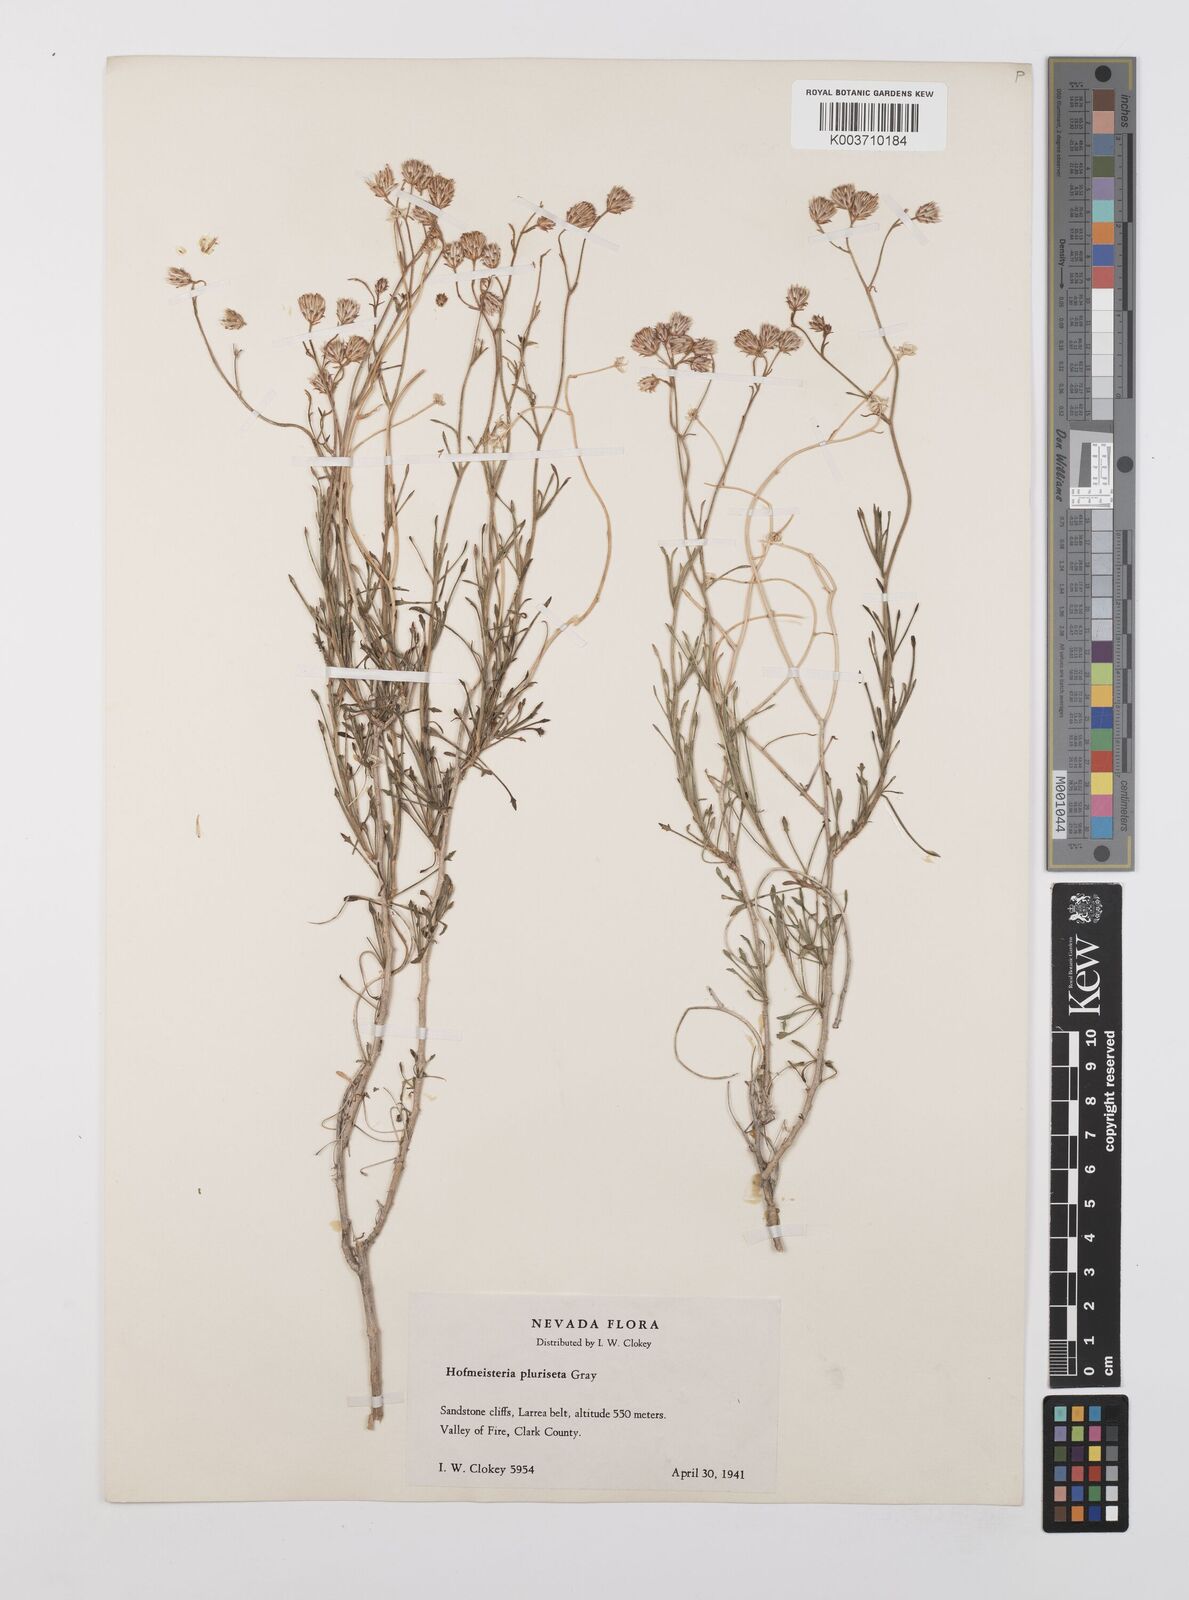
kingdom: Plantae
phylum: Tracheophyta
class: Magnoliopsida
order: Asterales
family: Asteraceae
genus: Pleurocoronis
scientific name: Pleurocoronis pluriseta
